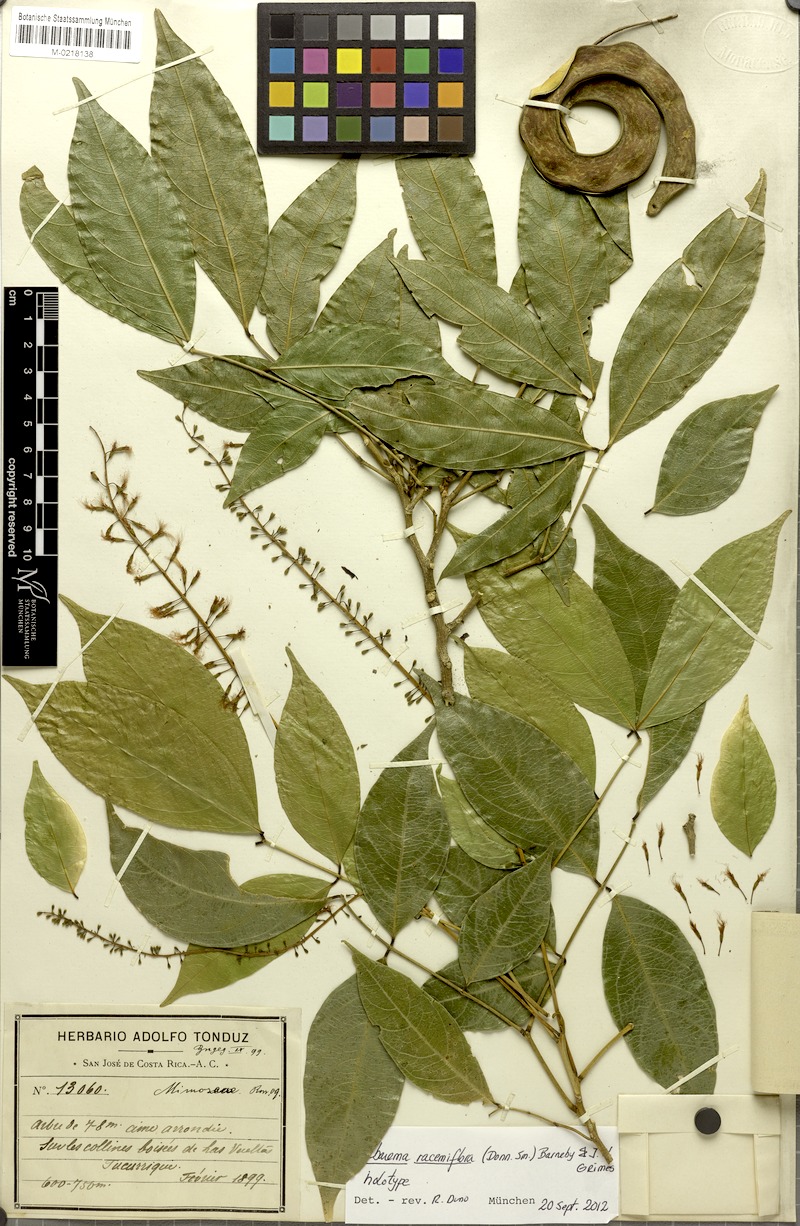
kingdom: Plantae
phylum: Tracheophyta
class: Magnoliopsida
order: Fabales
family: Fabaceae
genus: Punjuba
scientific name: Punjuba racemiflora
